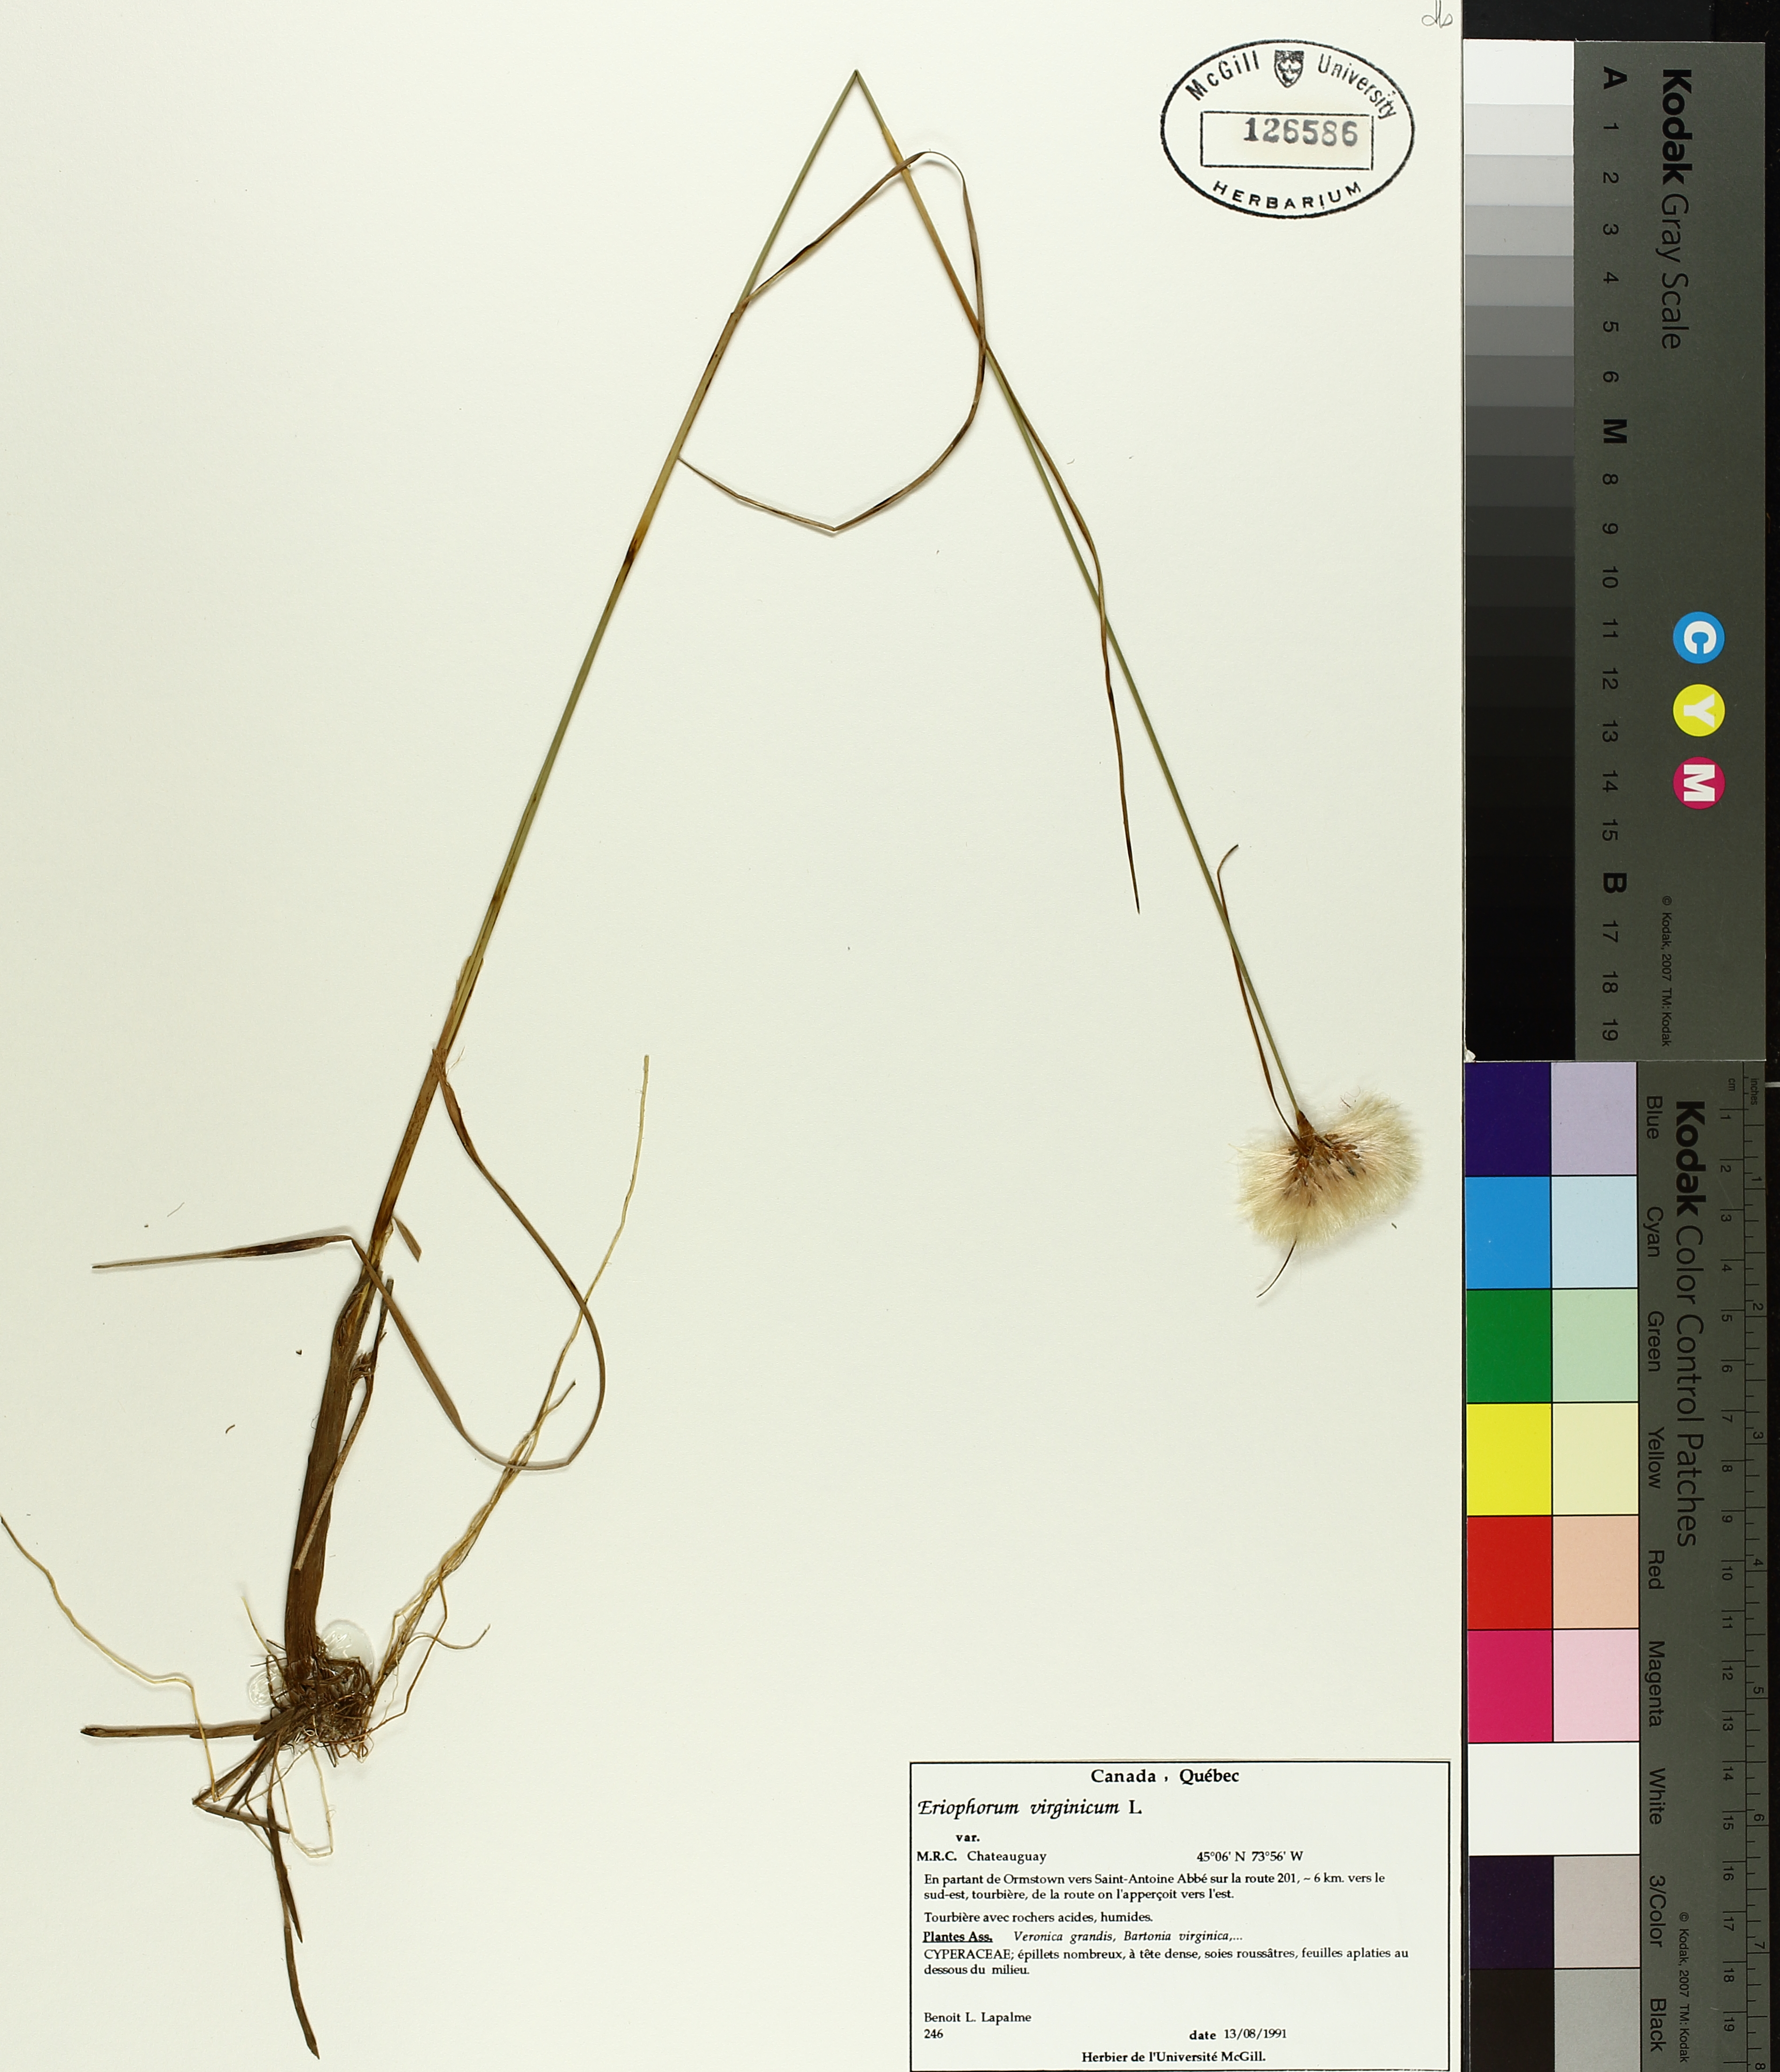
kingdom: Plantae
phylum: Tracheophyta
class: Liliopsida
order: Poales
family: Cyperaceae
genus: Eriophorum
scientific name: Eriophorum virginicum
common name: Tawny cottongrass
